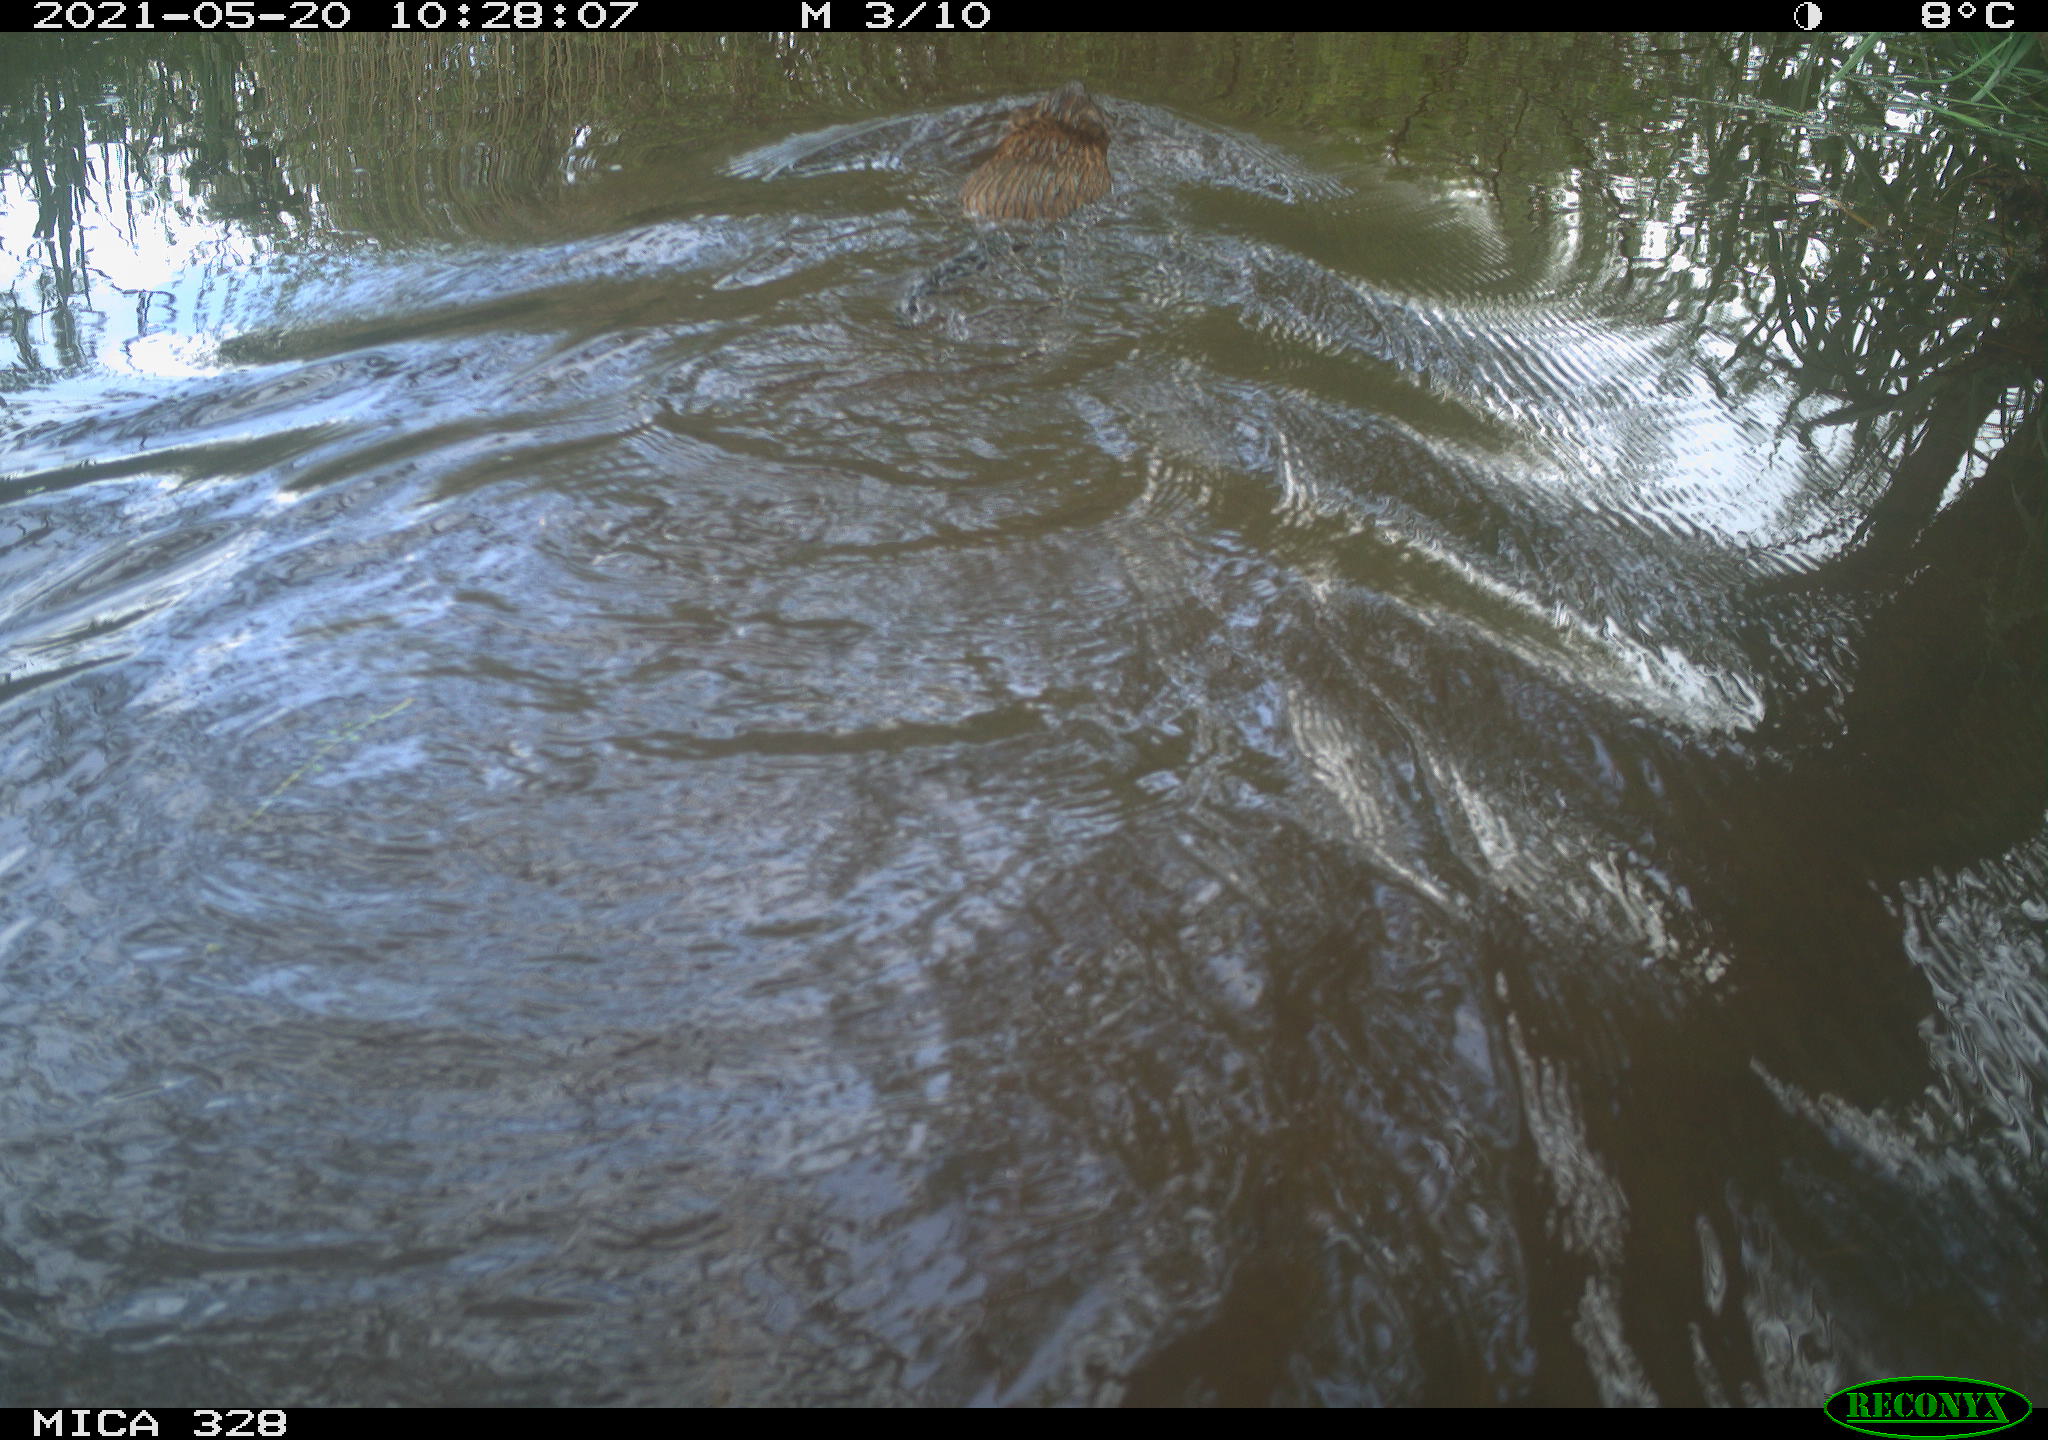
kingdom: Animalia
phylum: Chordata
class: Mammalia
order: Rodentia
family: Cricetidae
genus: Ondatra
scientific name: Ondatra zibethicus
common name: Muskrat
